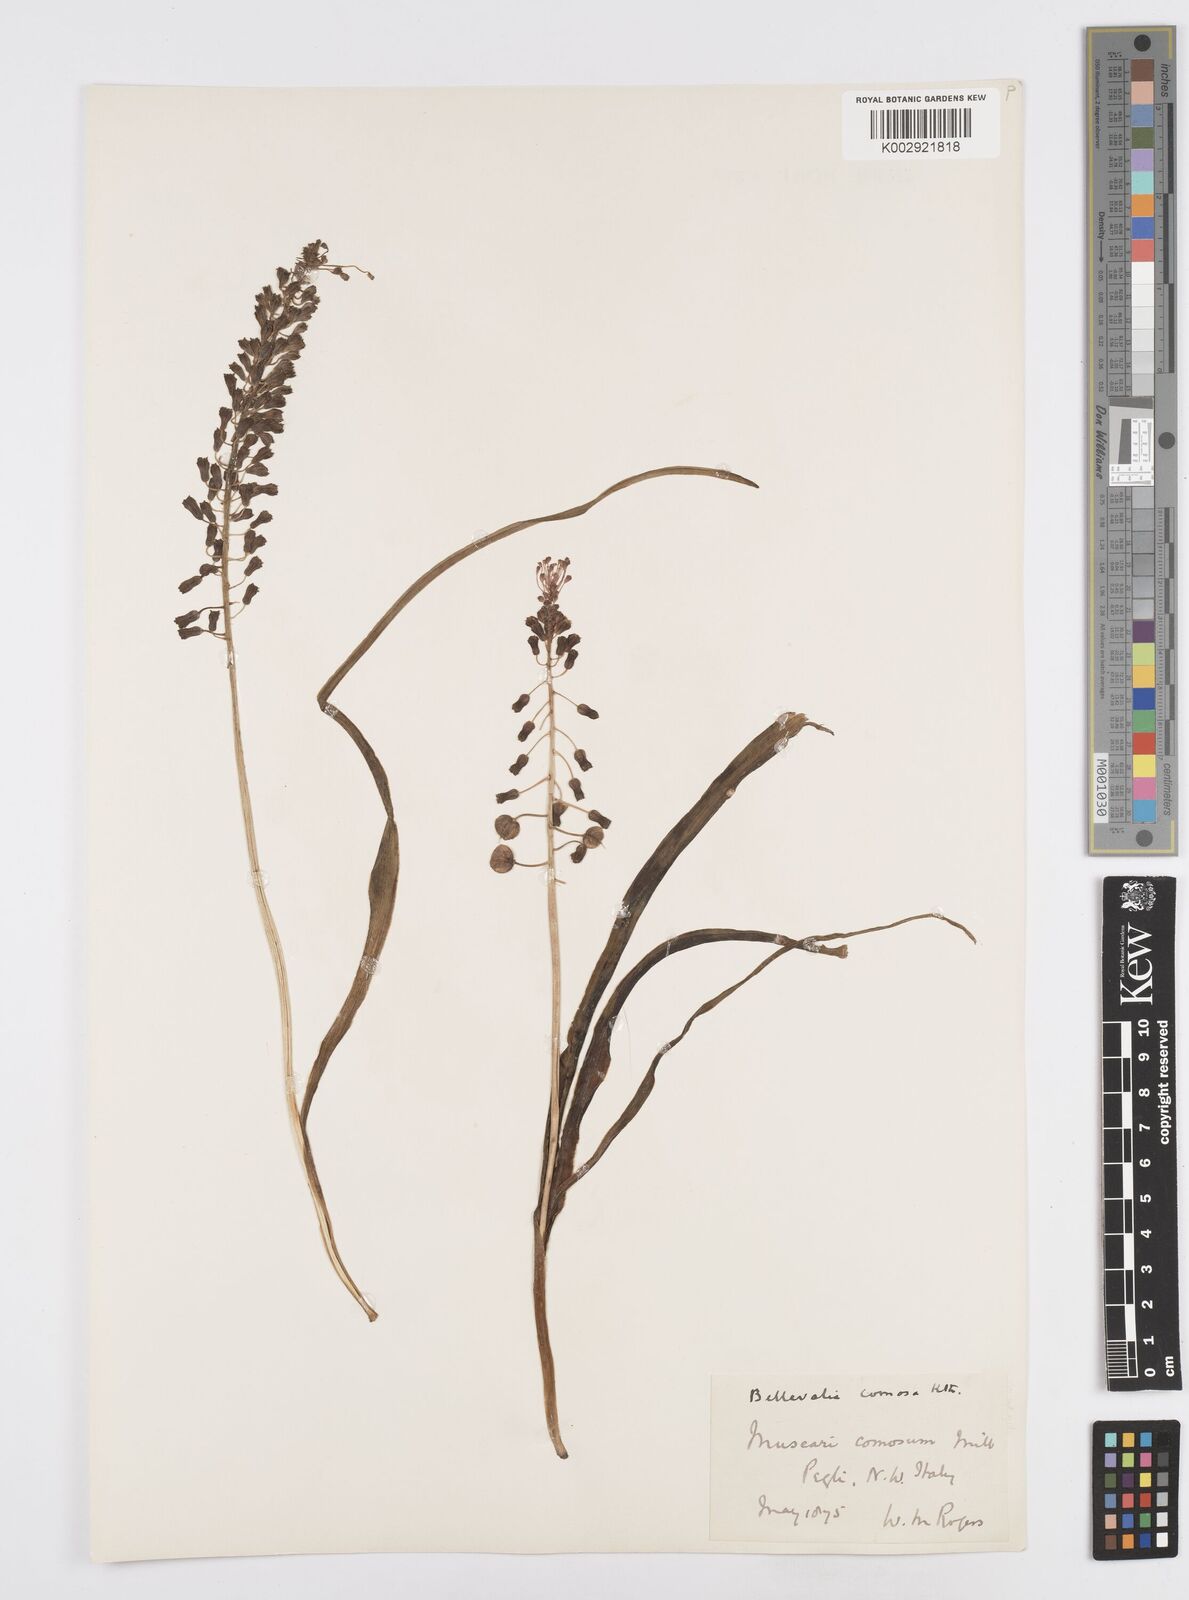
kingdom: Plantae
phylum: Tracheophyta
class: Liliopsida
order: Asparagales
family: Asparagaceae
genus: Muscari
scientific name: Muscari comosum
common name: Tassel hyacinth
